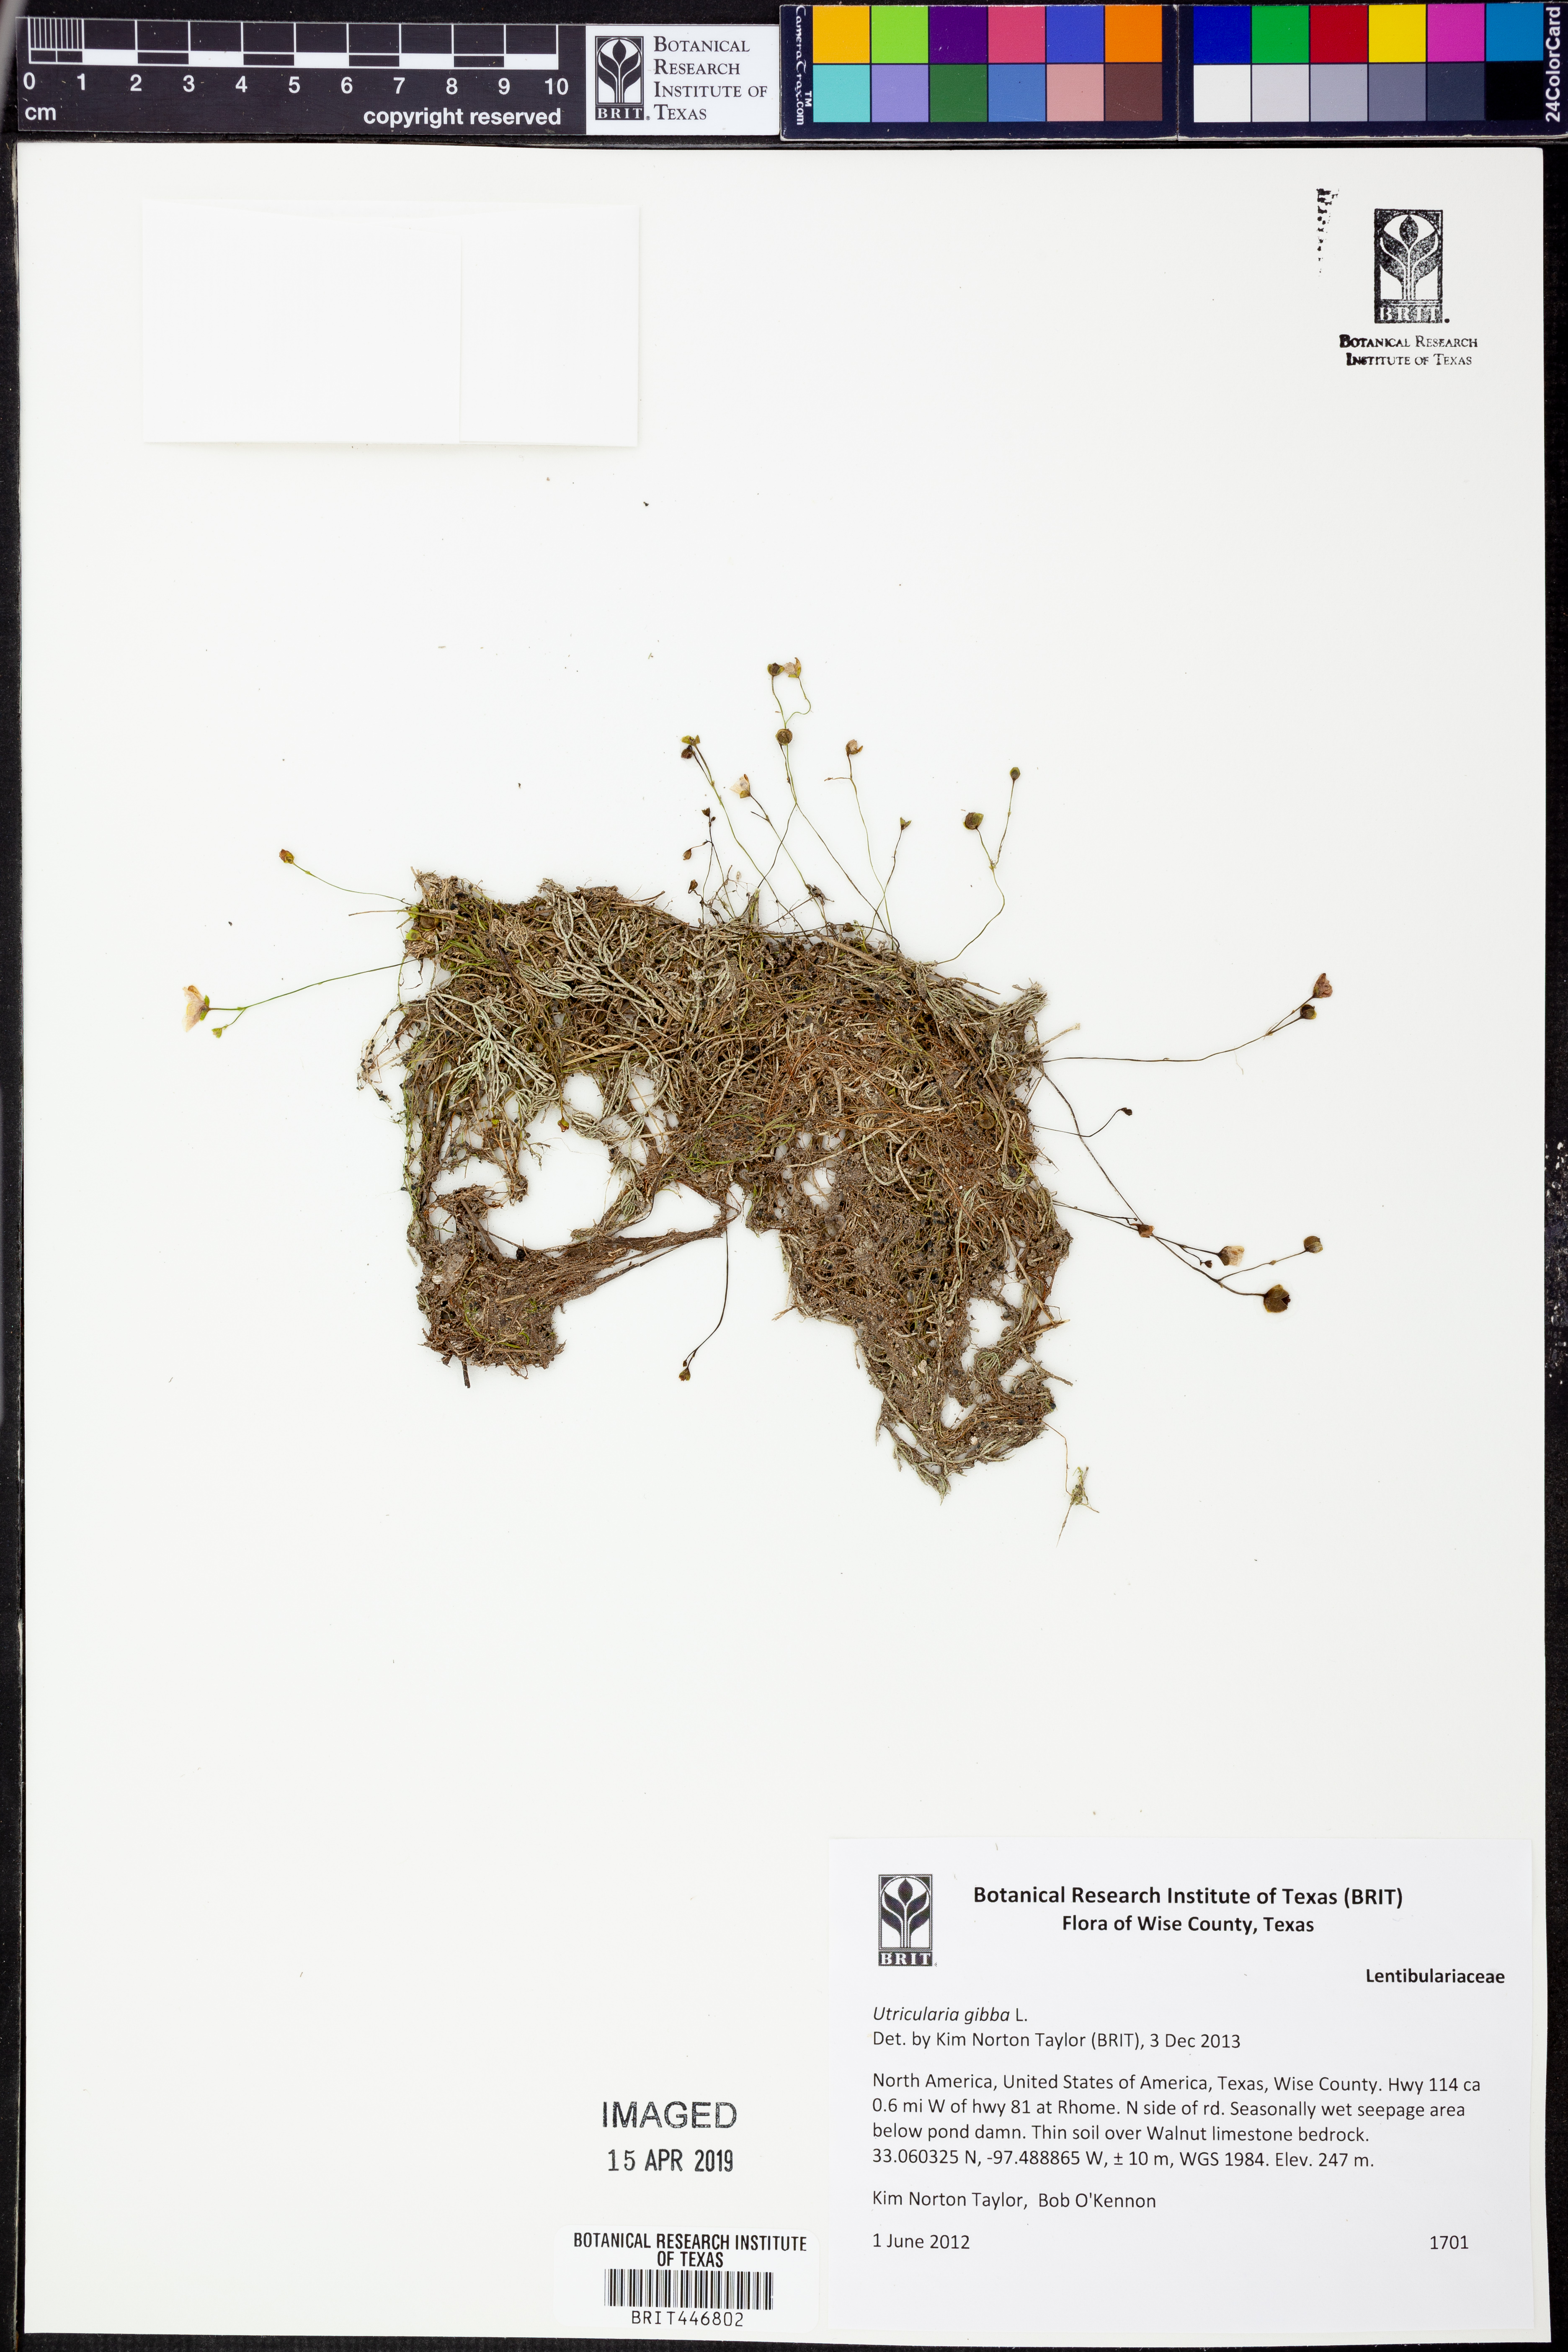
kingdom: Plantae
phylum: Tracheophyta
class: Magnoliopsida
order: Lamiales
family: Lentibulariaceae
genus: Utricularia
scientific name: Utricularia gibba
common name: Humped bladderwort
